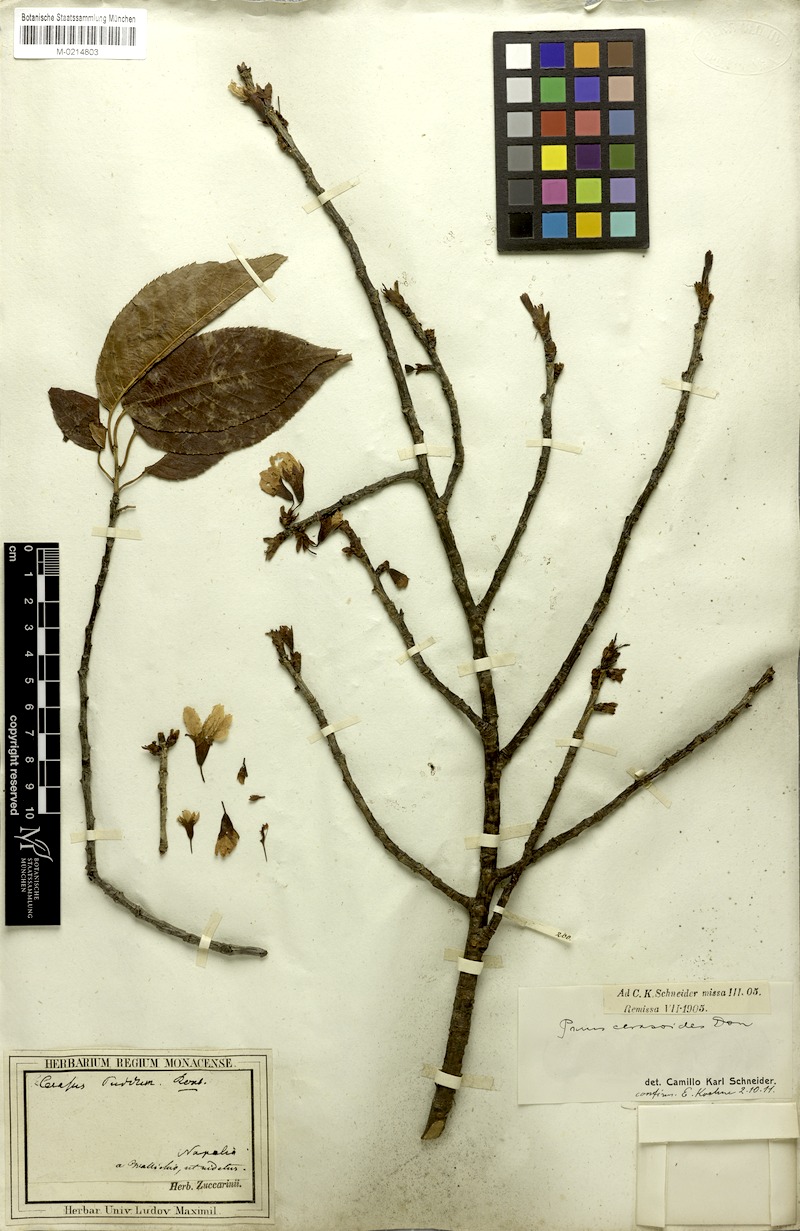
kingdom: Plantae
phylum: Tracheophyta
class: Magnoliopsida
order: Rosales
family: Rosaceae
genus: Prunus
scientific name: Prunus cerasoides
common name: Wild himalayan cherry
